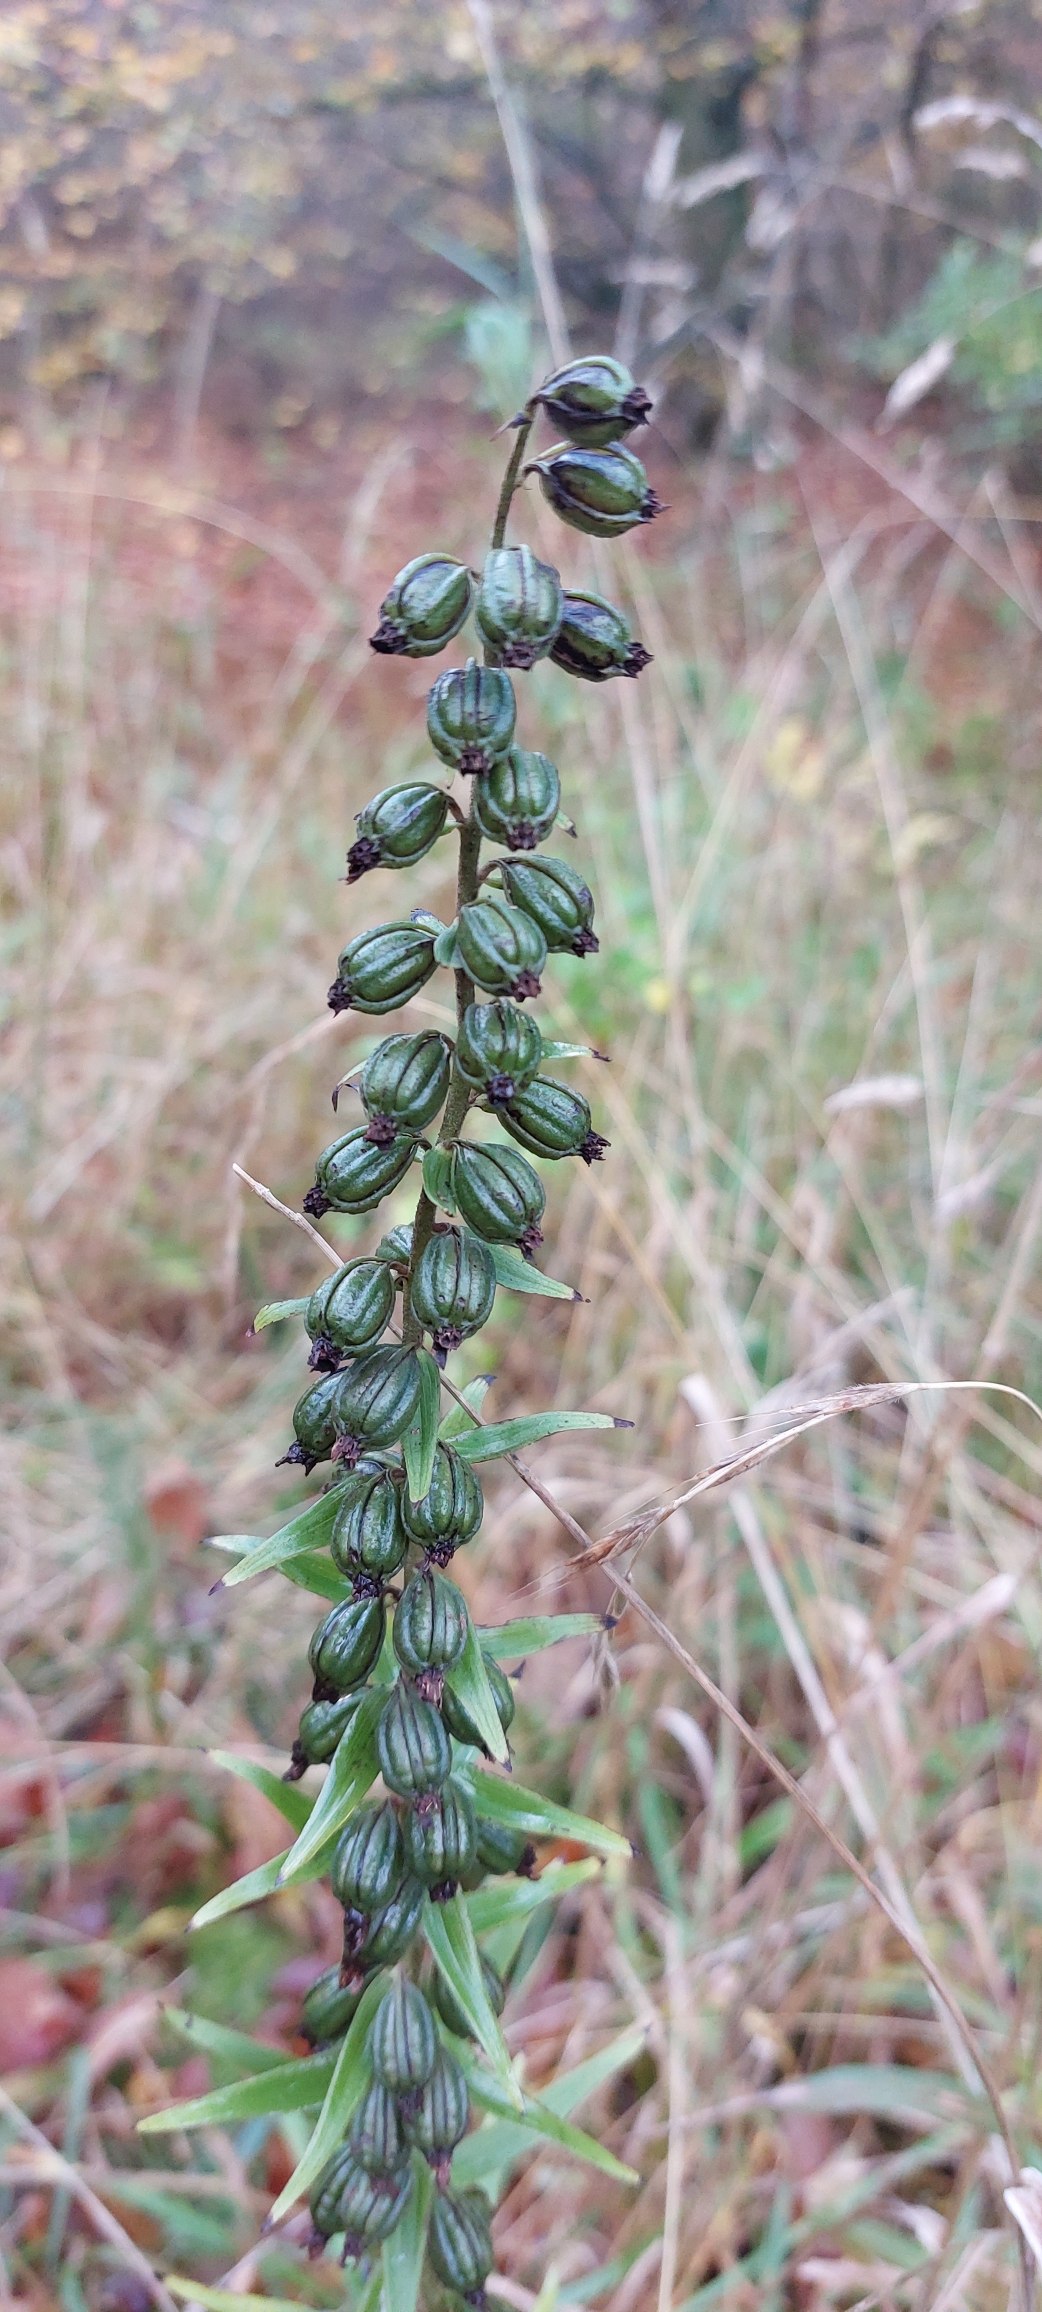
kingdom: Plantae
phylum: Tracheophyta
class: Liliopsida
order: Asparagales
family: Orchidaceae
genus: Epipactis
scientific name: Epipactis helleborine
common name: Skov-hullæbe
